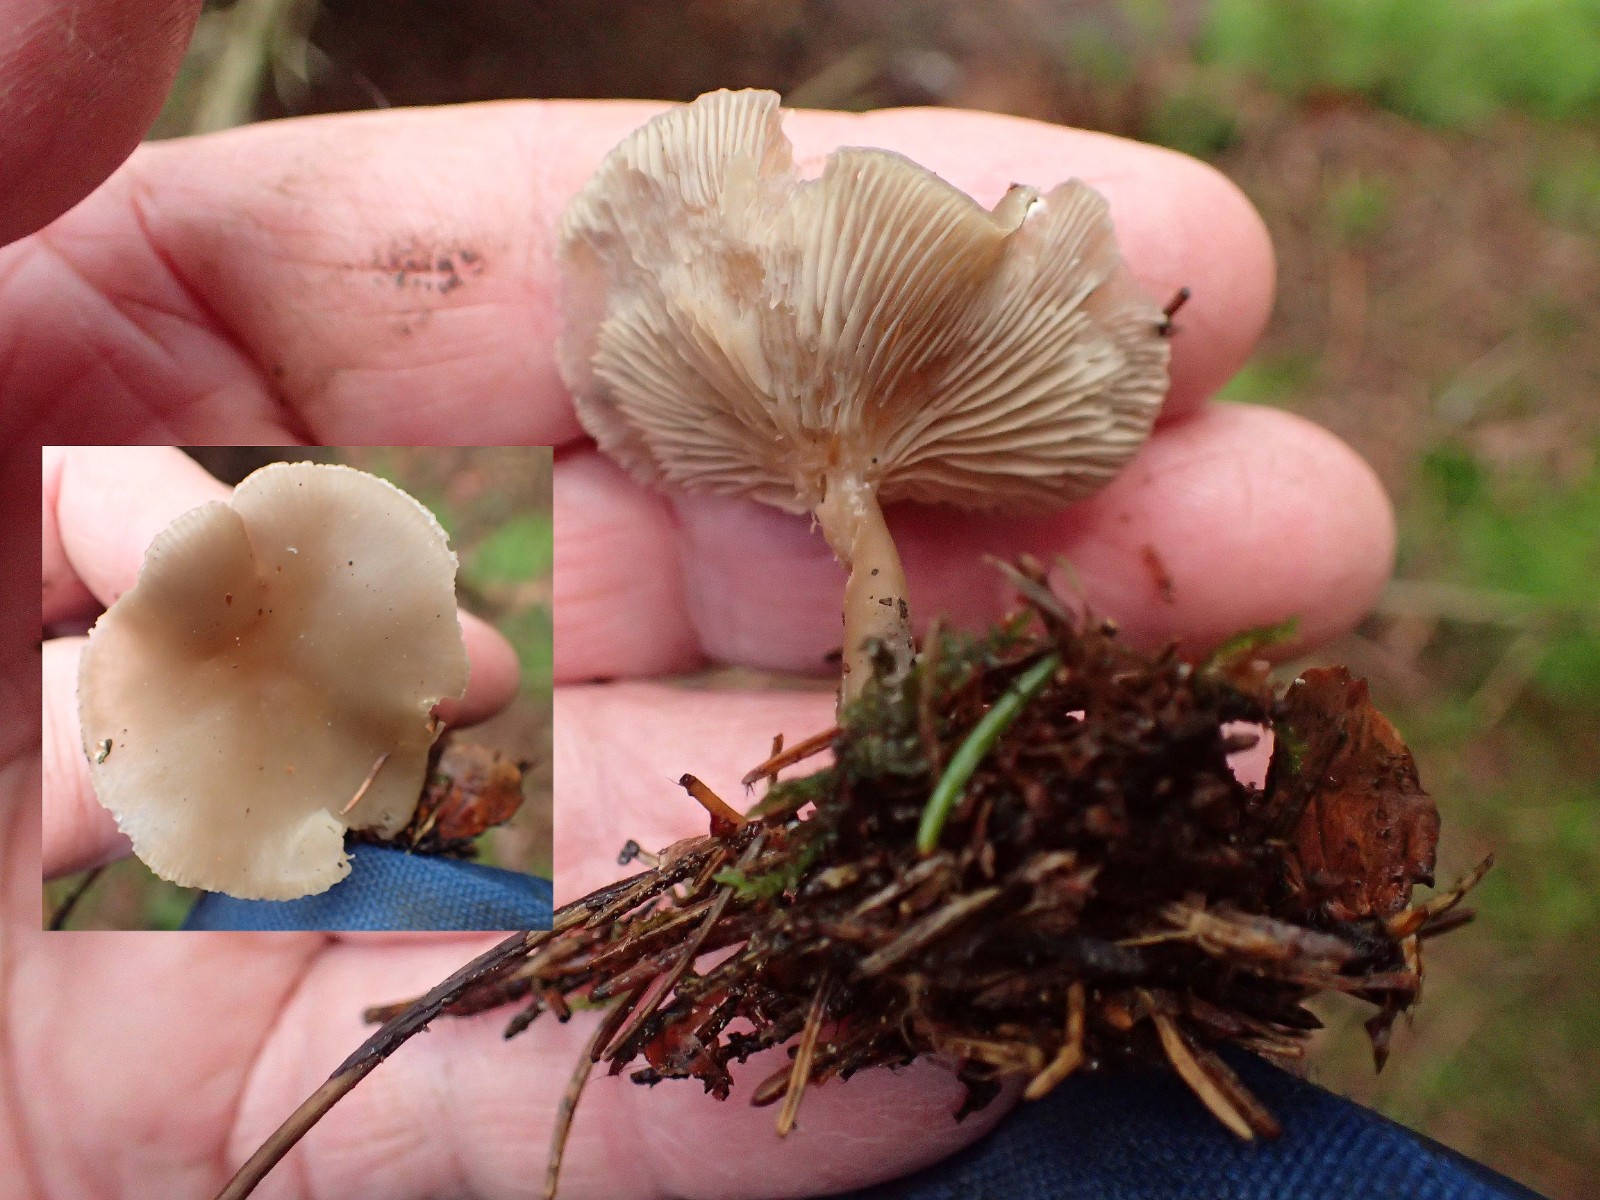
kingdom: Fungi
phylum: Basidiomycota
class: Agaricomycetes
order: Agaricales
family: Tricholomataceae
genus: Clitocybe
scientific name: Clitocybe fragrans
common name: vellugtende tragthat
